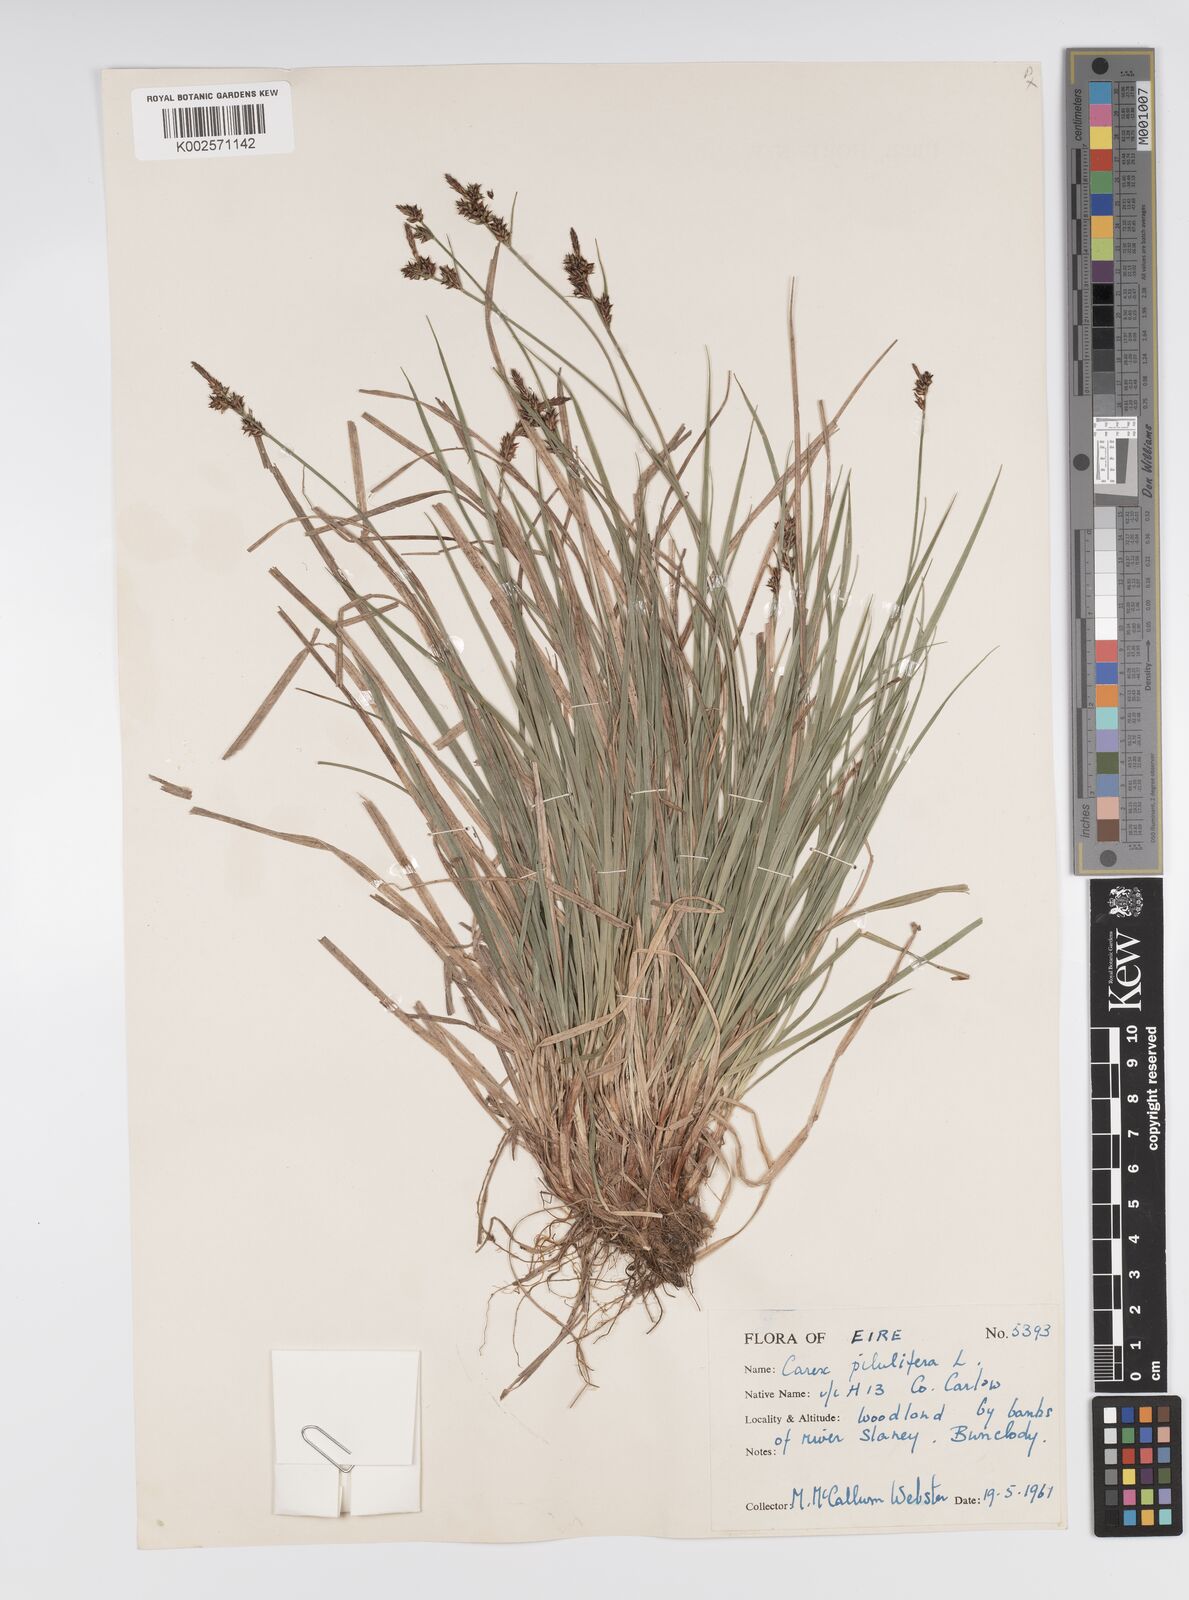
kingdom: Plantae
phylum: Tracheophyta
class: Liliopsida
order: Poales
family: Cyperaceae
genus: Carex
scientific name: Carex pilulifera
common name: Pill sedge
